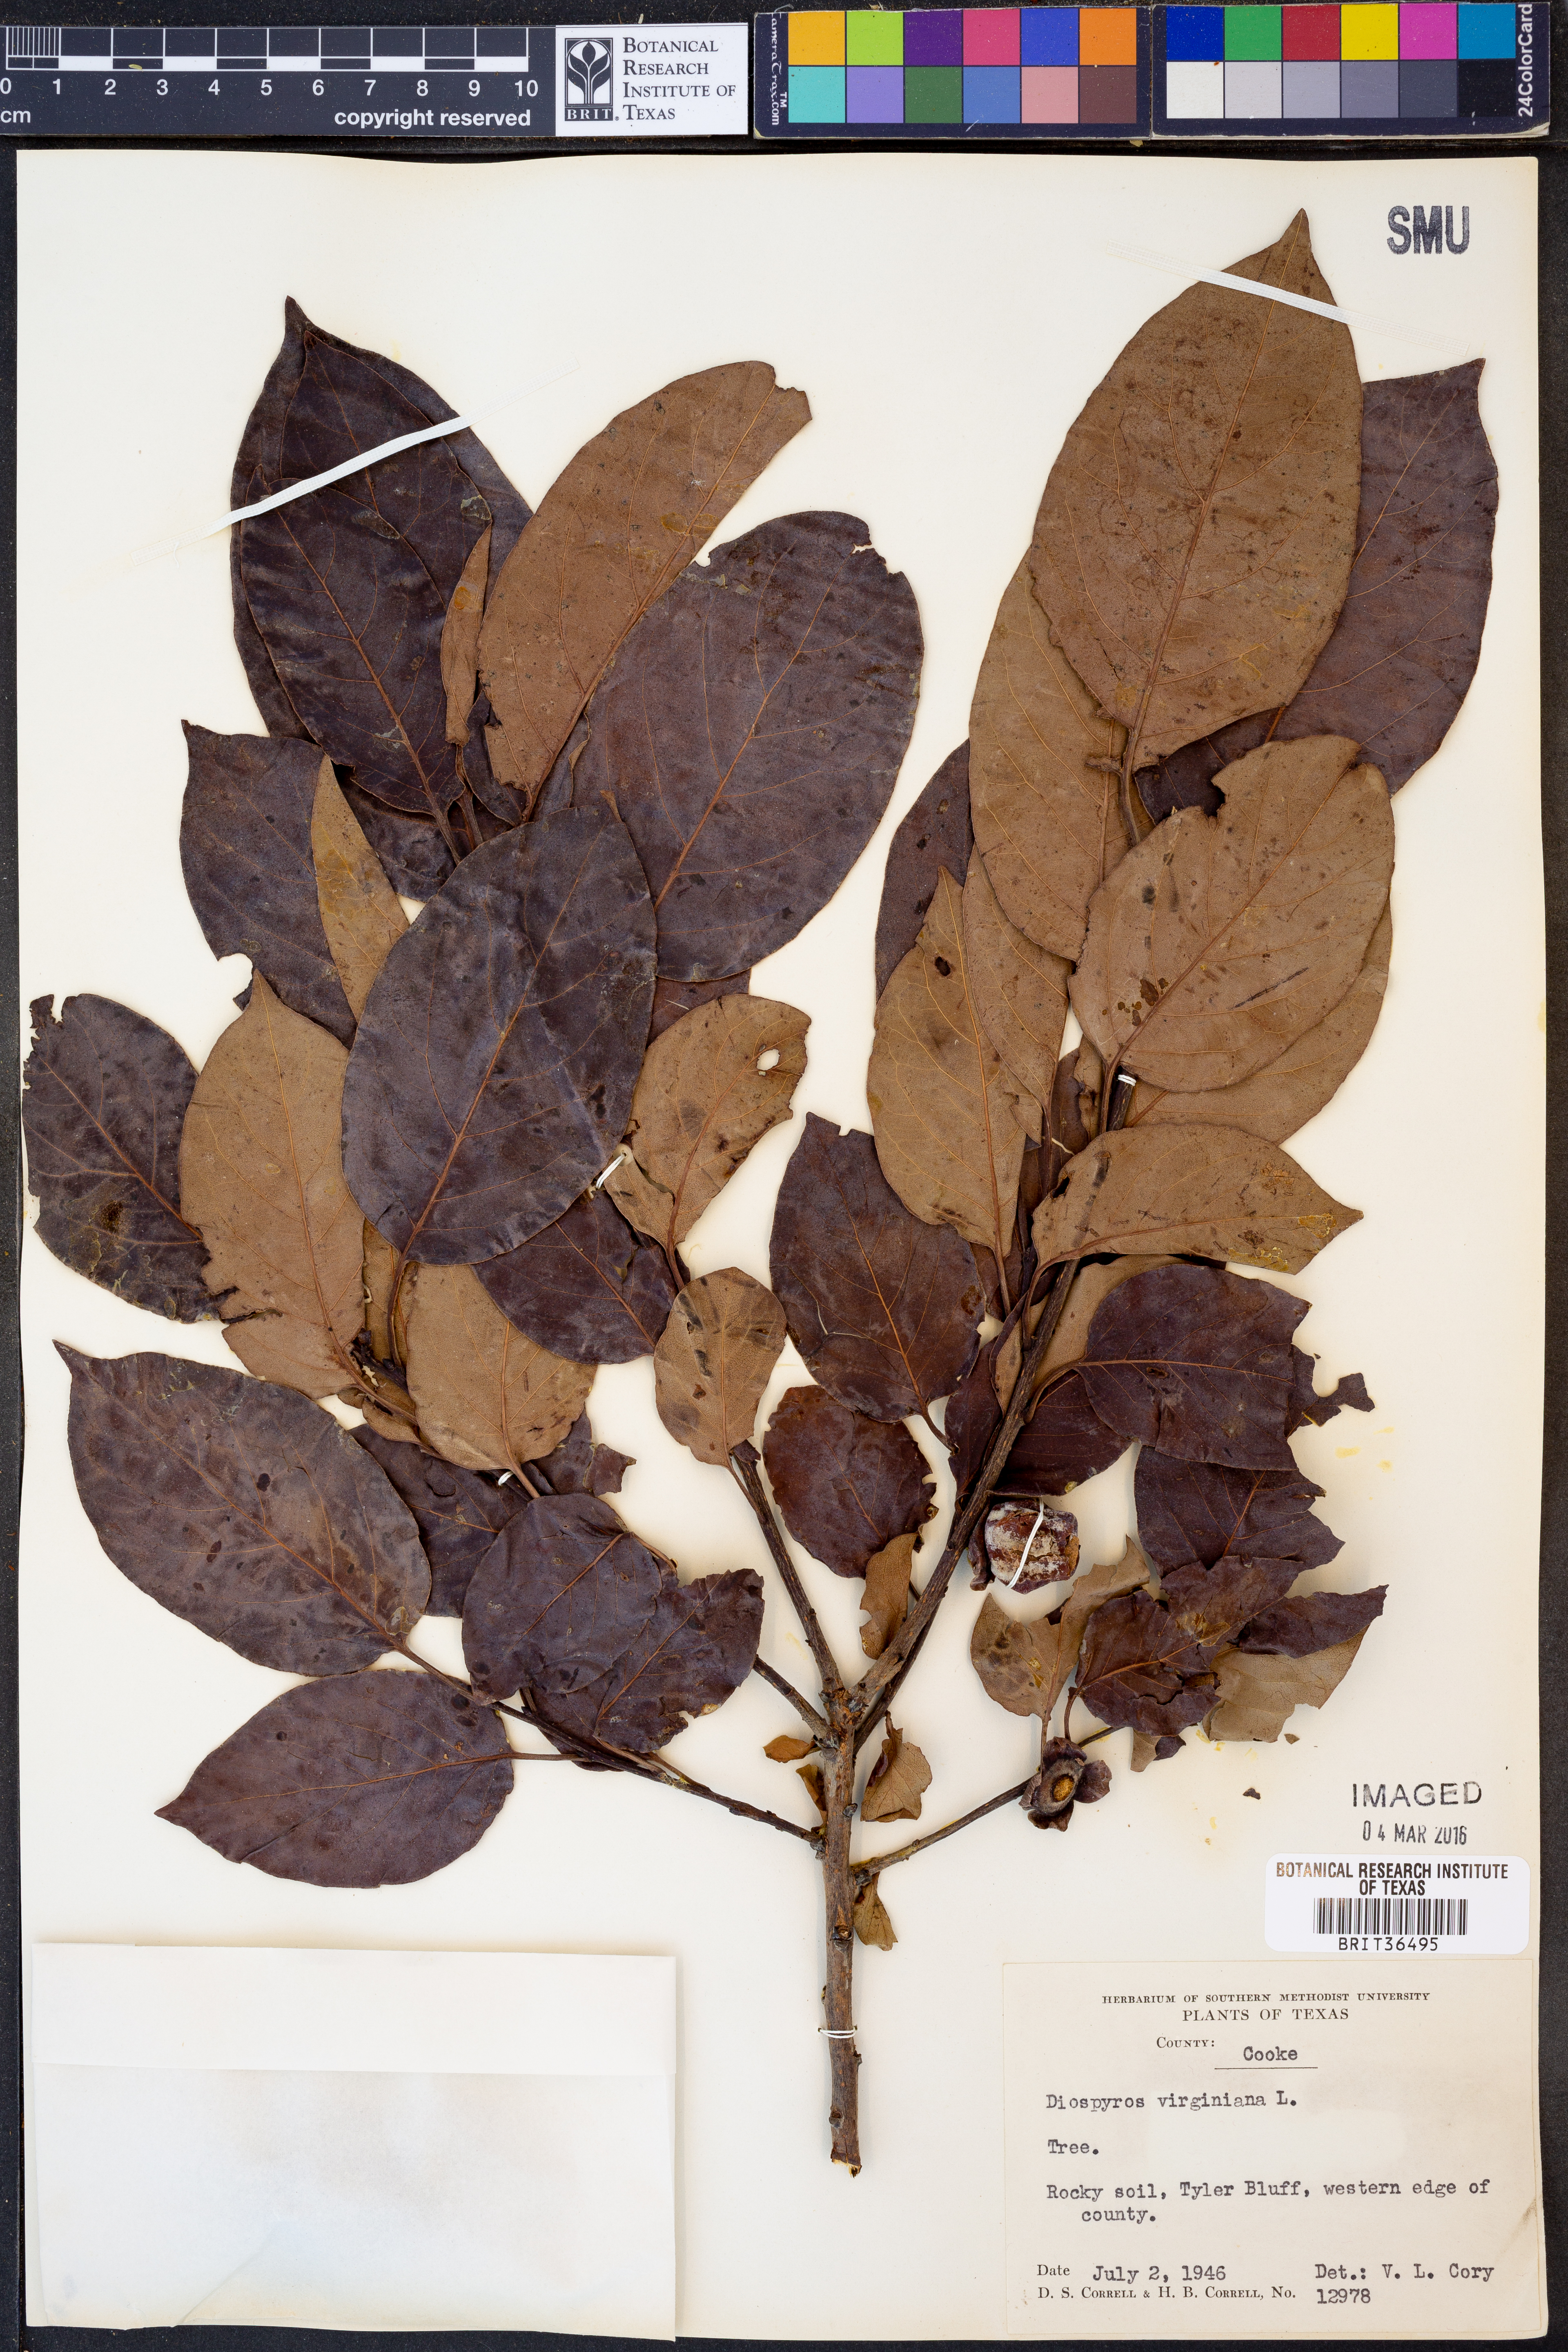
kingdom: Plantae
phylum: Tracheophyta
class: Magnoliopsida
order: Ericales
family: Ebenaceae
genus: Diospyros
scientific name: Diospyros virginiana
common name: Persimmon
